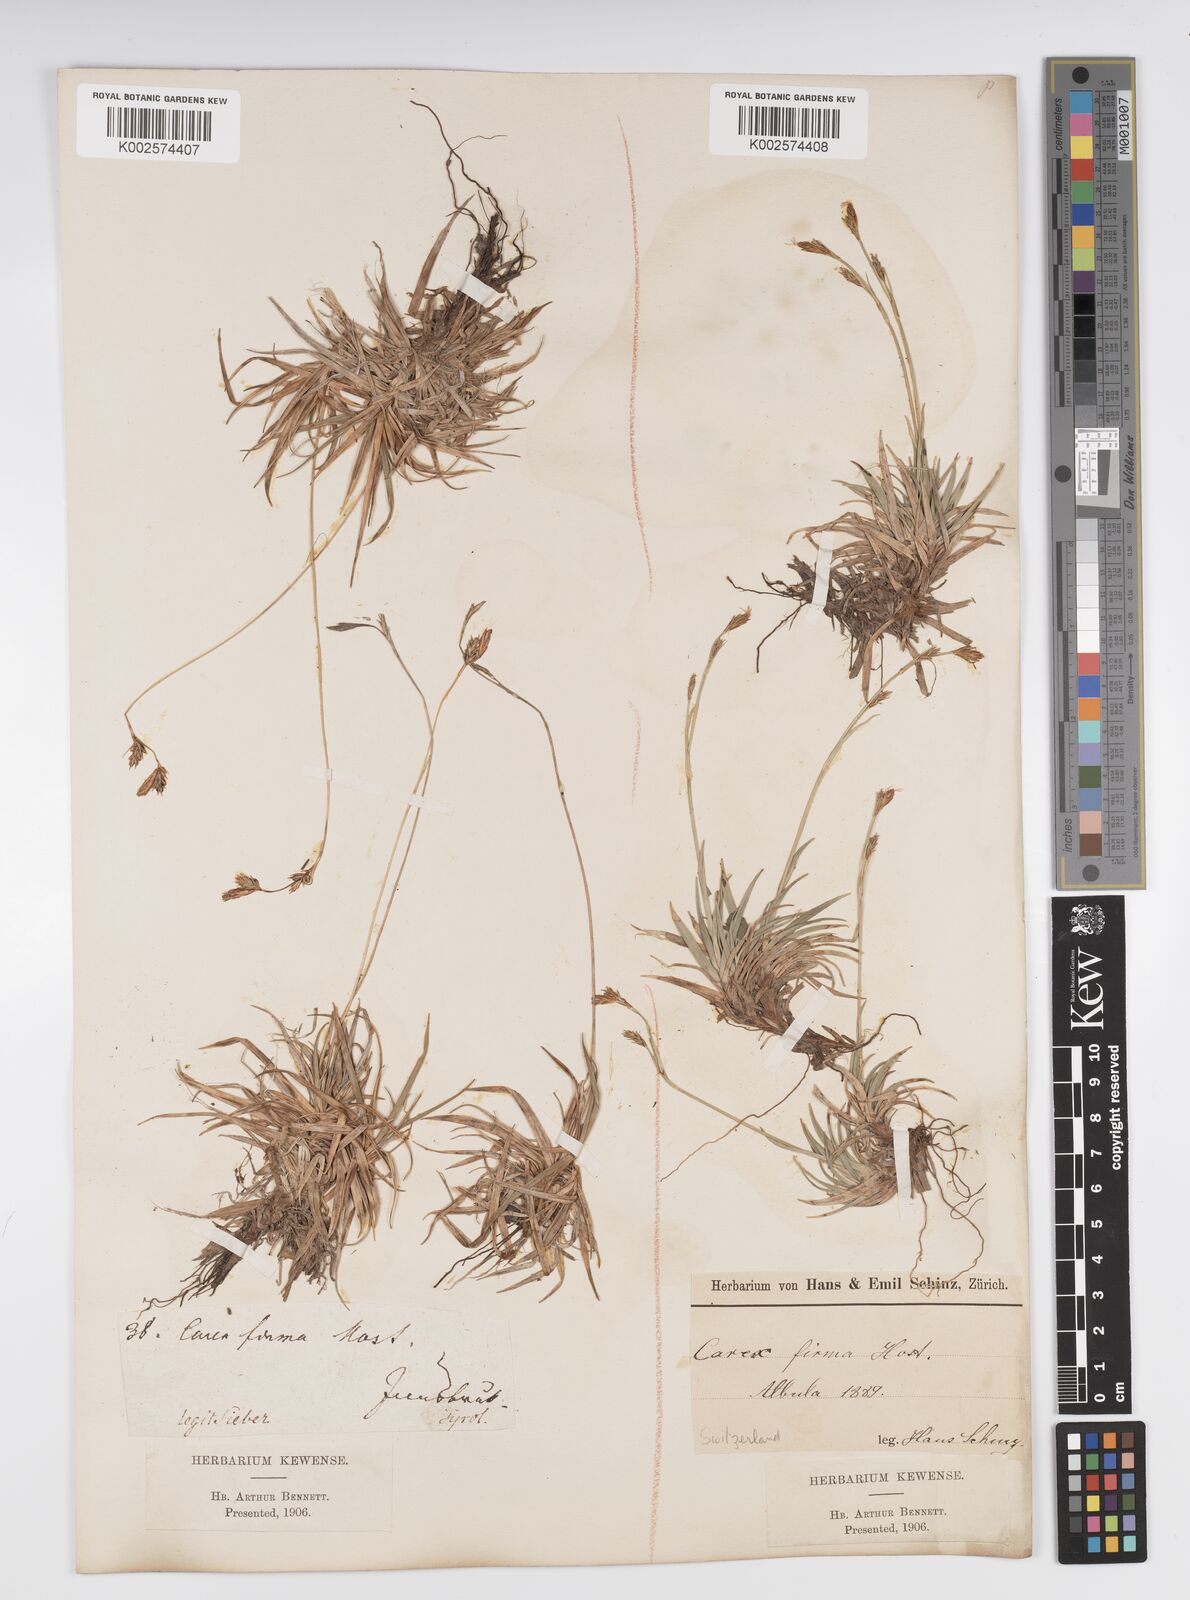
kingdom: Plantae
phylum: Tracheophyta
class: Liliopsida
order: Poales
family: Cyperaceae
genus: Carex
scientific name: Carex firma
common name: Dwarf pillow sedge
